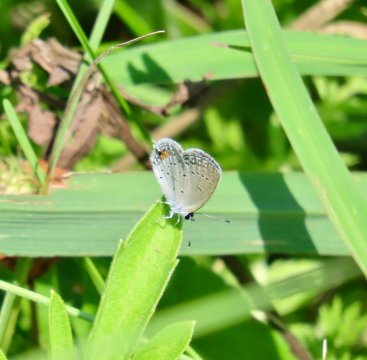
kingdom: Animalia
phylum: Arthropoda
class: Insecta
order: Lepidoptera
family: Lycaenidae
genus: Elkalyce
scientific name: Elkalyce comyntas
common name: Eastern Tailed-Blue
